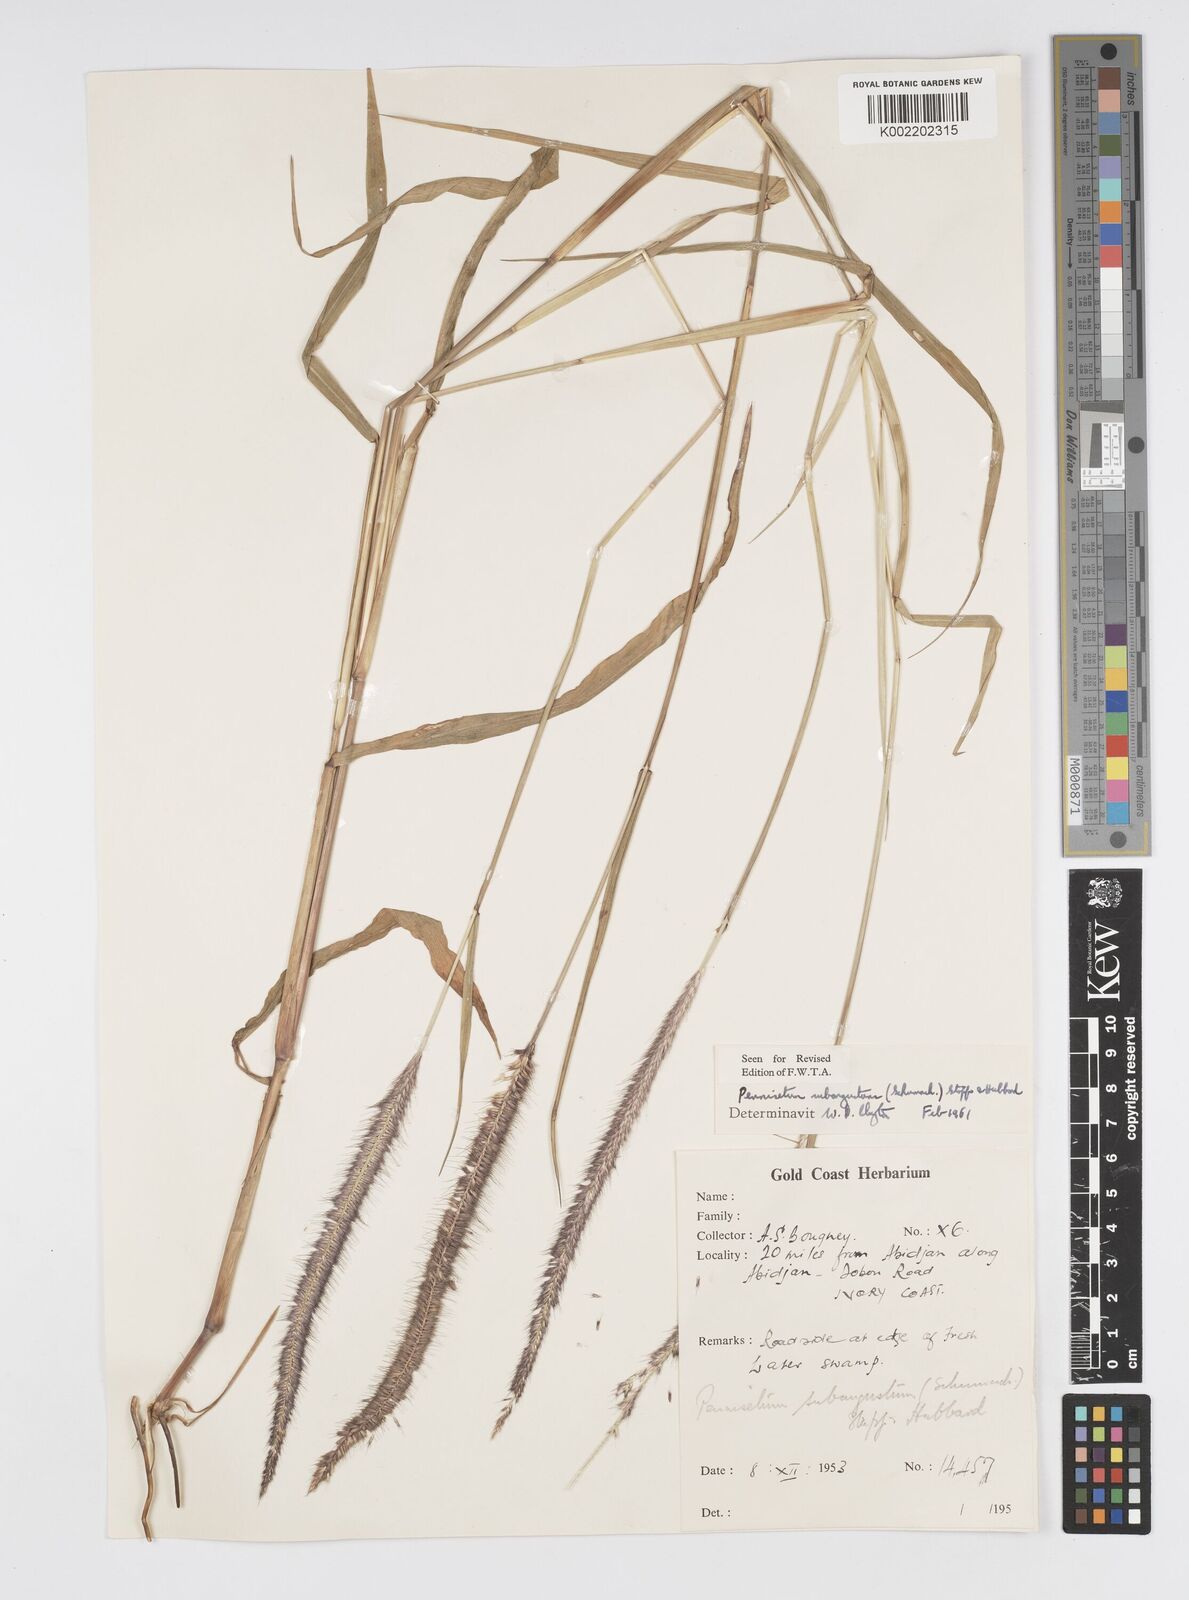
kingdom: Plantae
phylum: Tracheophyta
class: Liliopsida
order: Poales
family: Poaceae
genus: Setaria
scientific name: Setaria parviflora
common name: Knotroot bristle-grass
